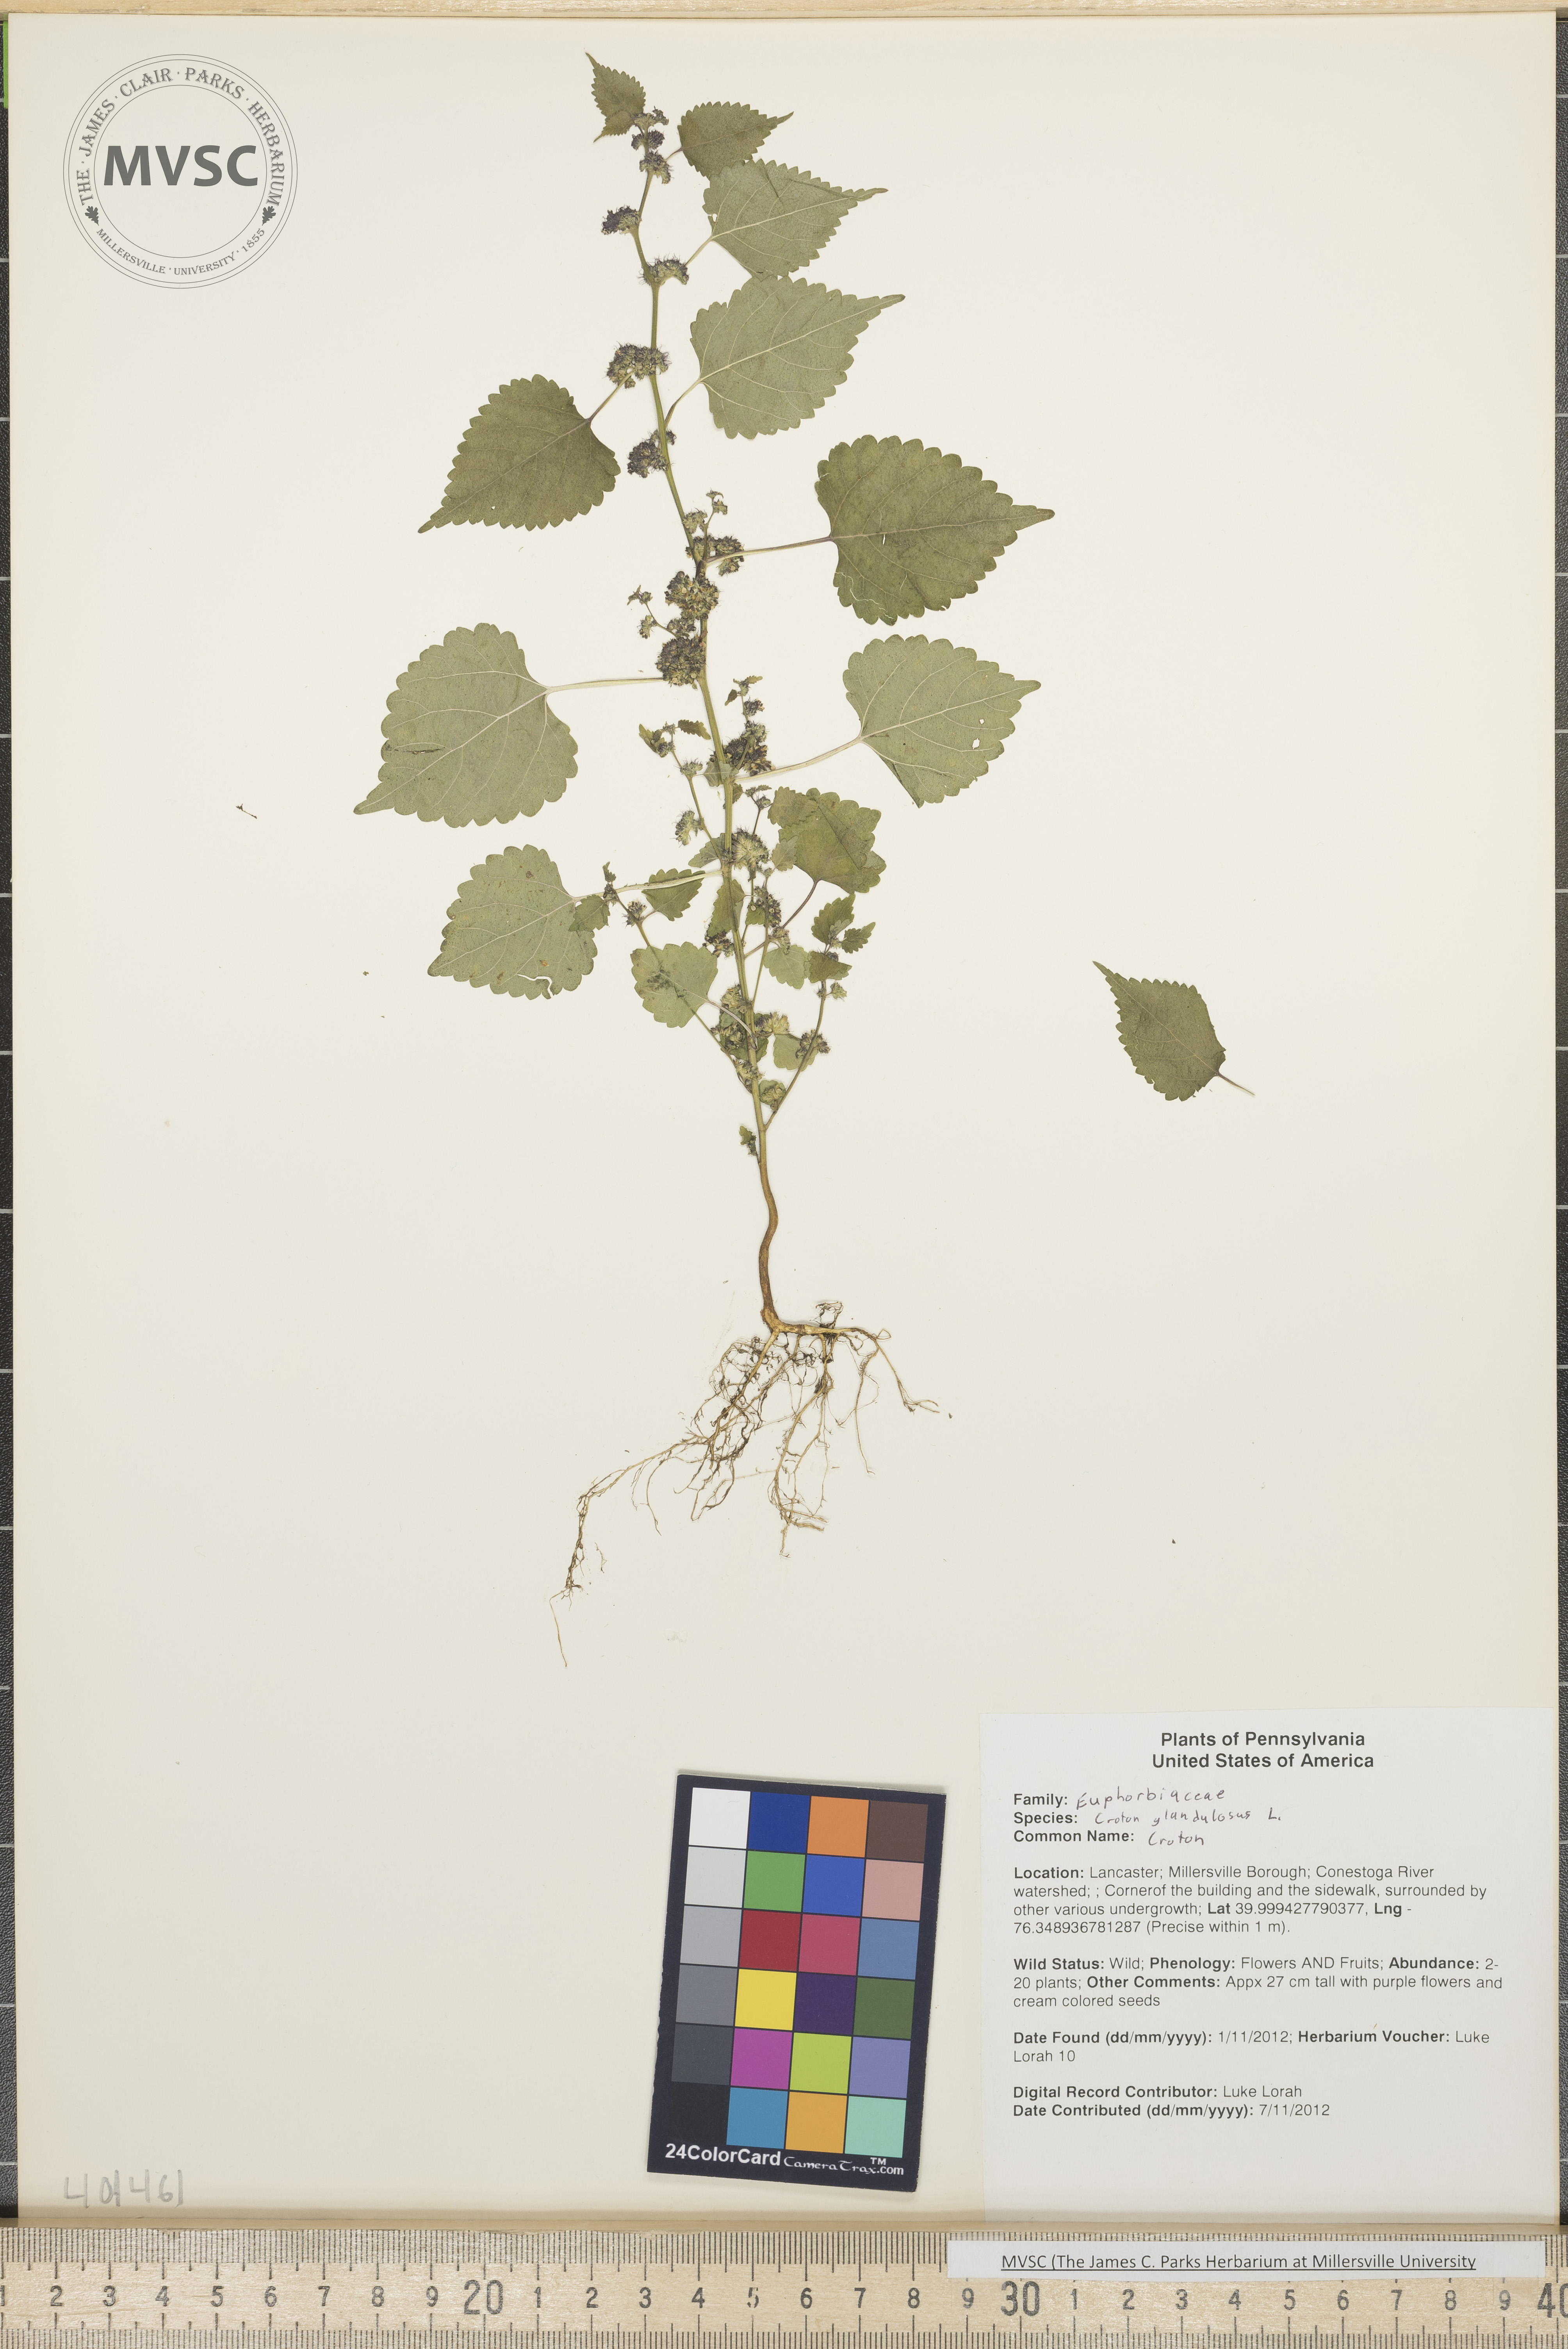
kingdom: Plantae
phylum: Tracheophyta
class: Magnoliopsida
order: Rosales
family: Moraceae
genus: Fatoua
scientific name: Fatoua villosa
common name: Hairy crabweed
